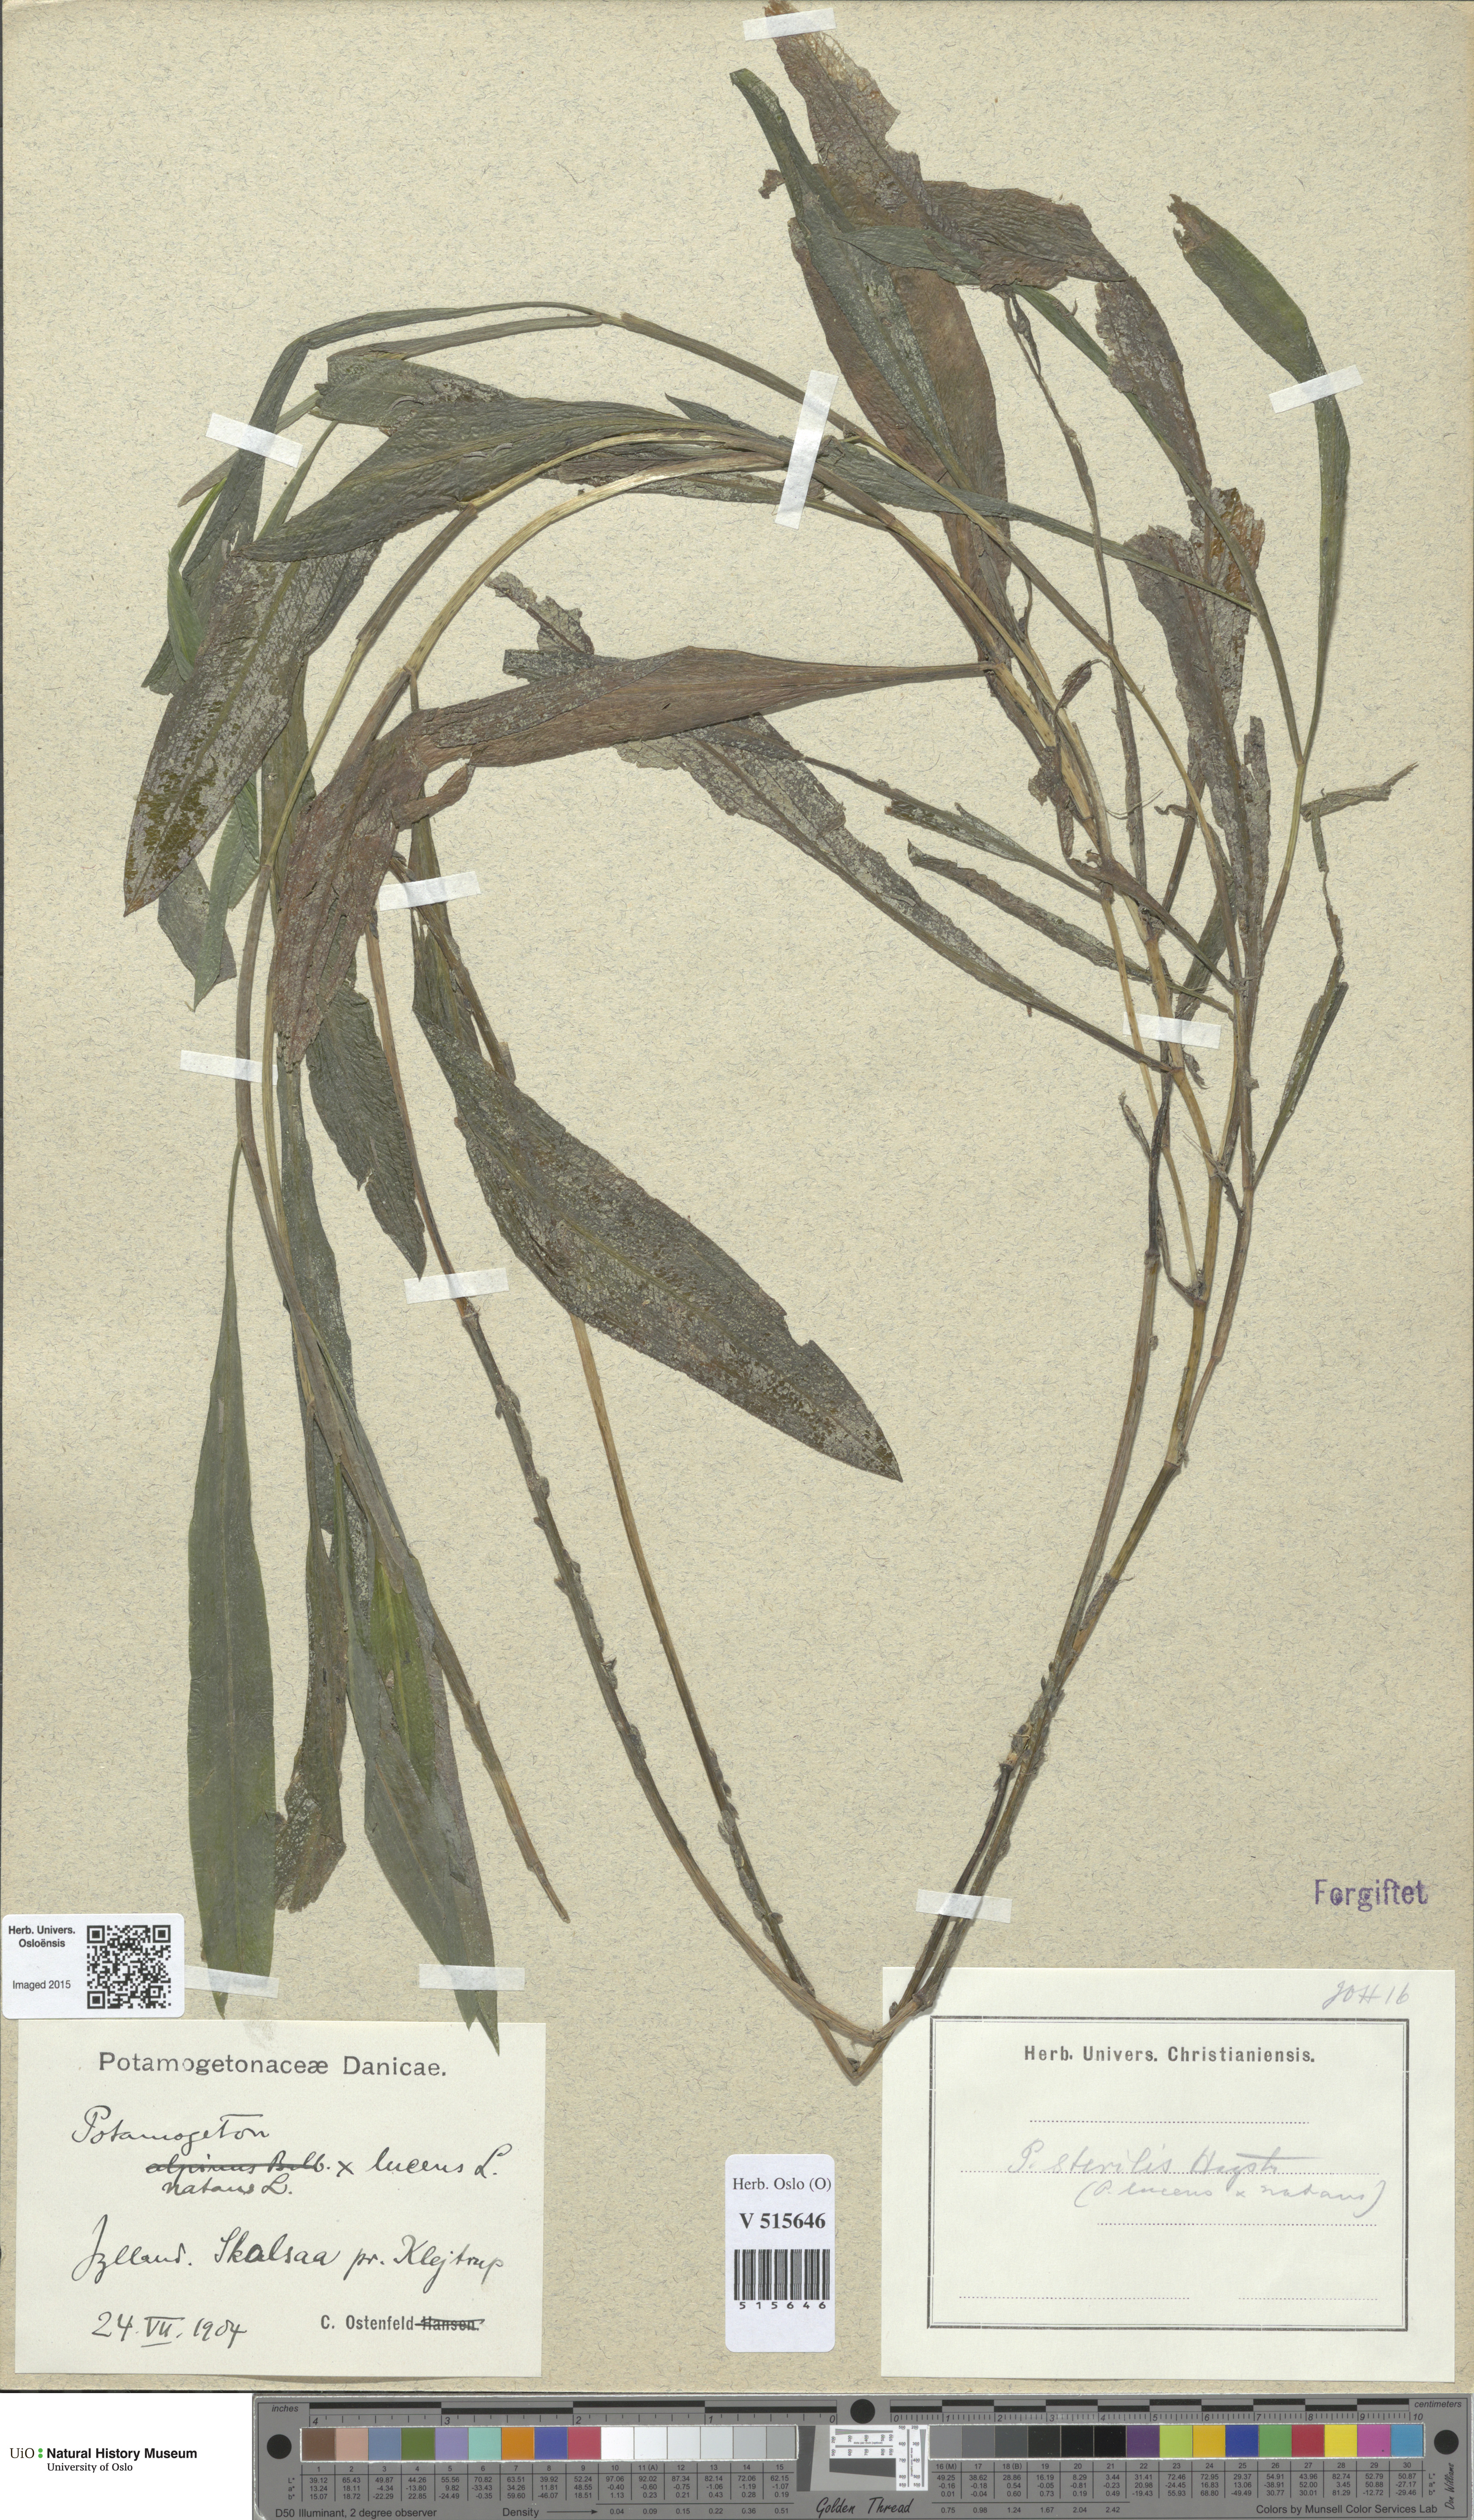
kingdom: Plantae
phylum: Tracheophyta
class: Liliopsida
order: Alismatales
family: Potamogetonaceae
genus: Potamogeton
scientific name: Potamogeton
